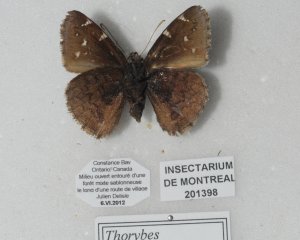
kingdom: Animalia
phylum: Arthropoda
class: Insecta
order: Lepidoptera
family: Hesperiidae
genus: Autochton
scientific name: Autochton
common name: Northern Cloudywing
